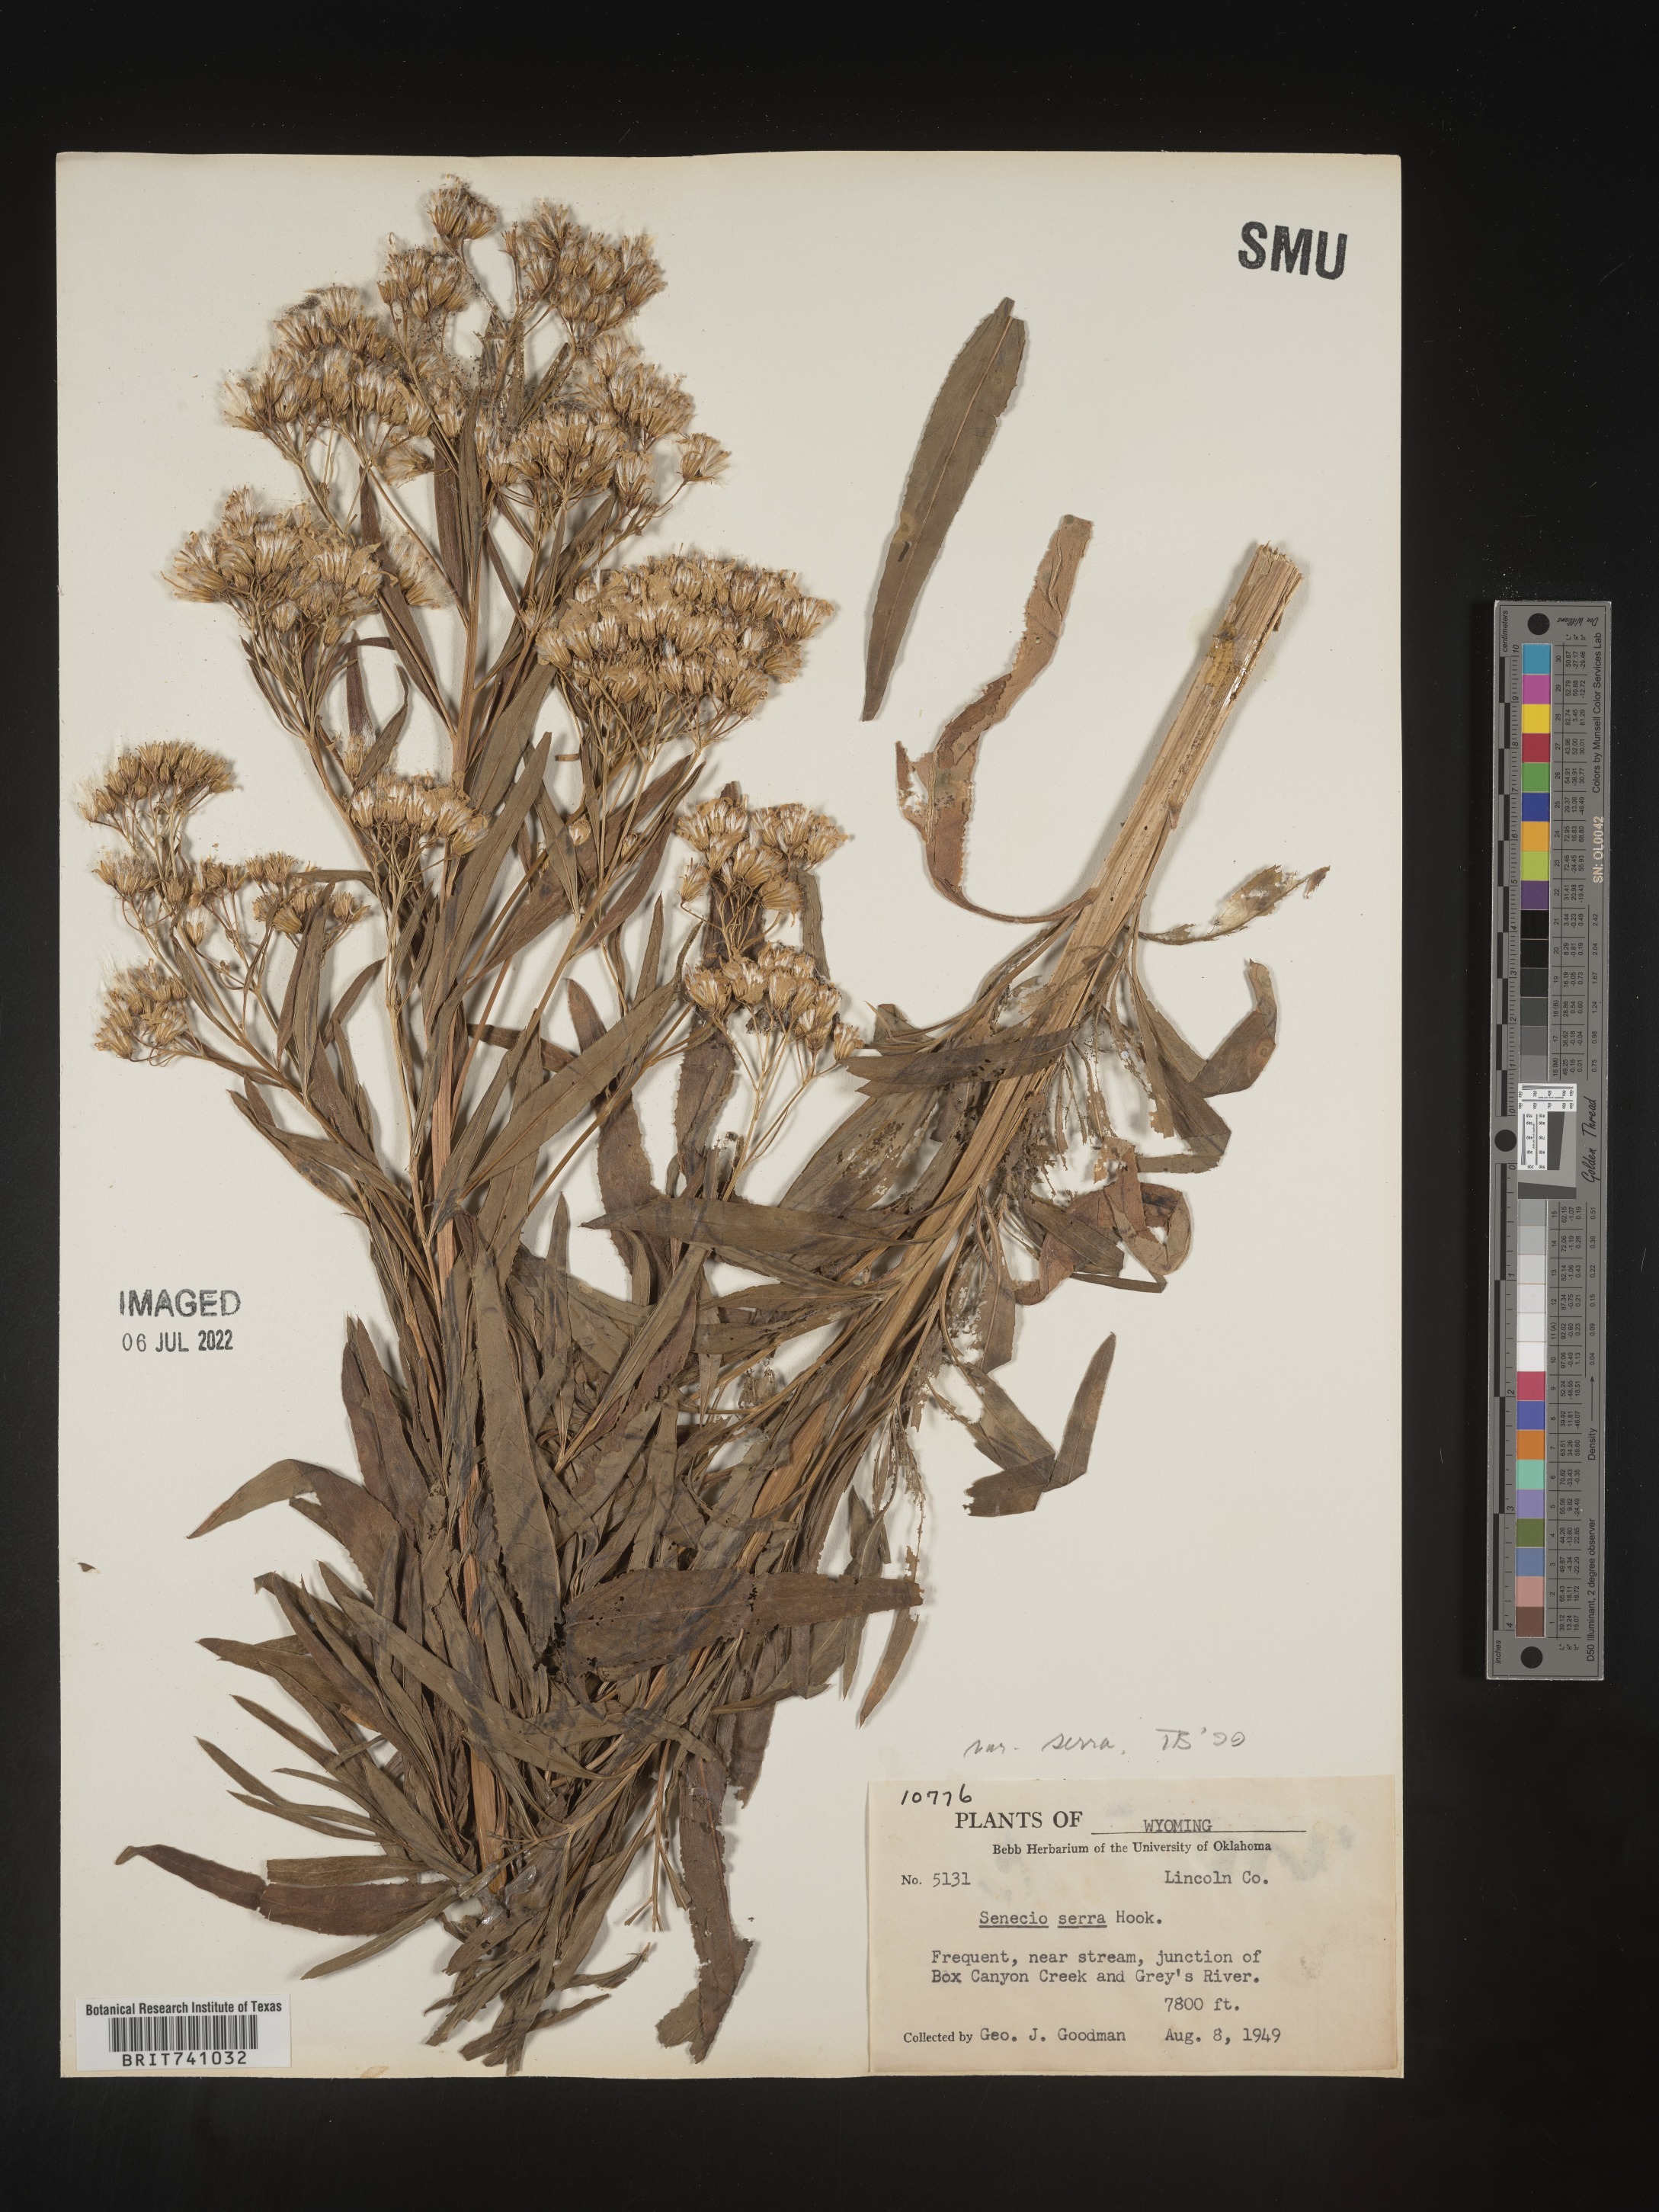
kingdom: Plantae
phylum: Tracheophyta
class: Magnoliopsida
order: Asterales
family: Asteraceae
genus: Senecio
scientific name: Senecio serra
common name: Tall ragwort
